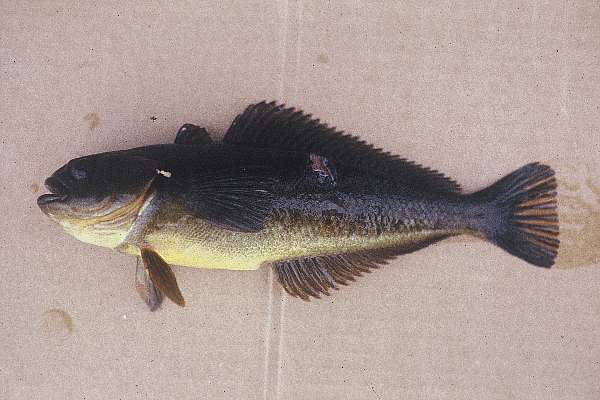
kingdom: Animalia
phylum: Chordata
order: Perciformes
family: Nototheniidae
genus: Notothenia
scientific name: Notothenia coriiceps
